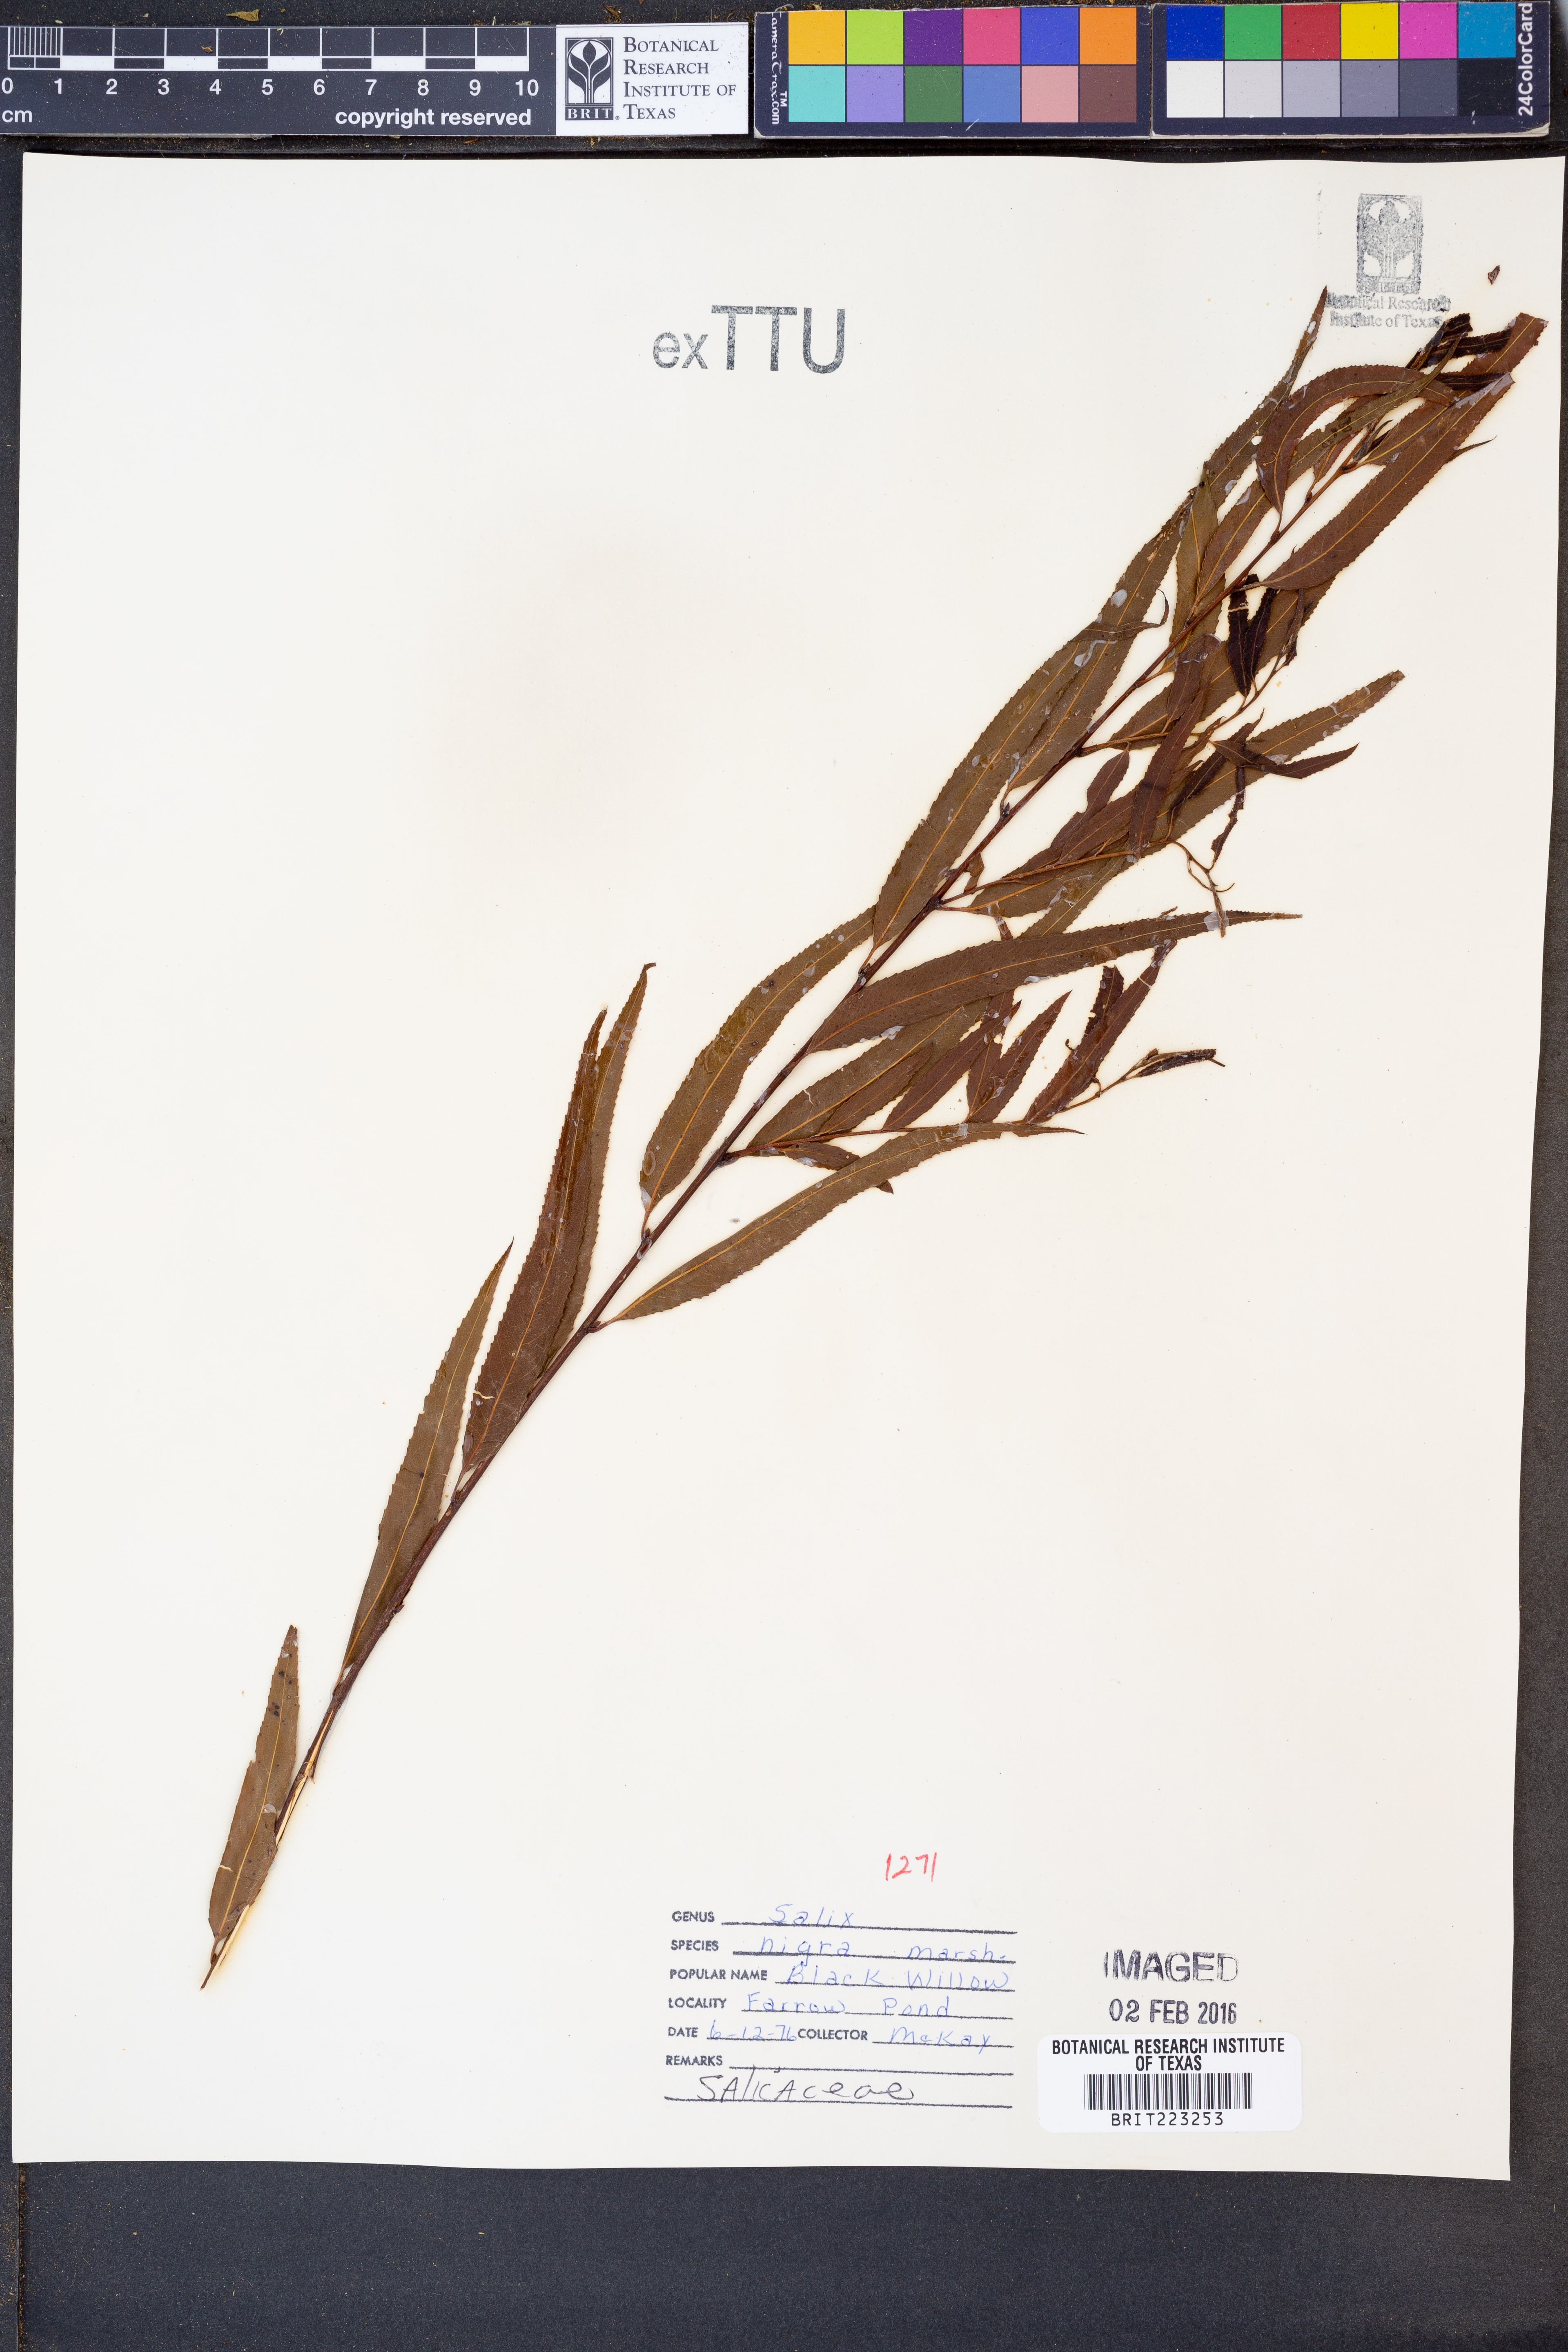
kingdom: Plantae
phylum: Tracheophyta
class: Magnoliopsida
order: Malpighiales
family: Salicaceae
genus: Salix
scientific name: Salix nigra
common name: Black willow
